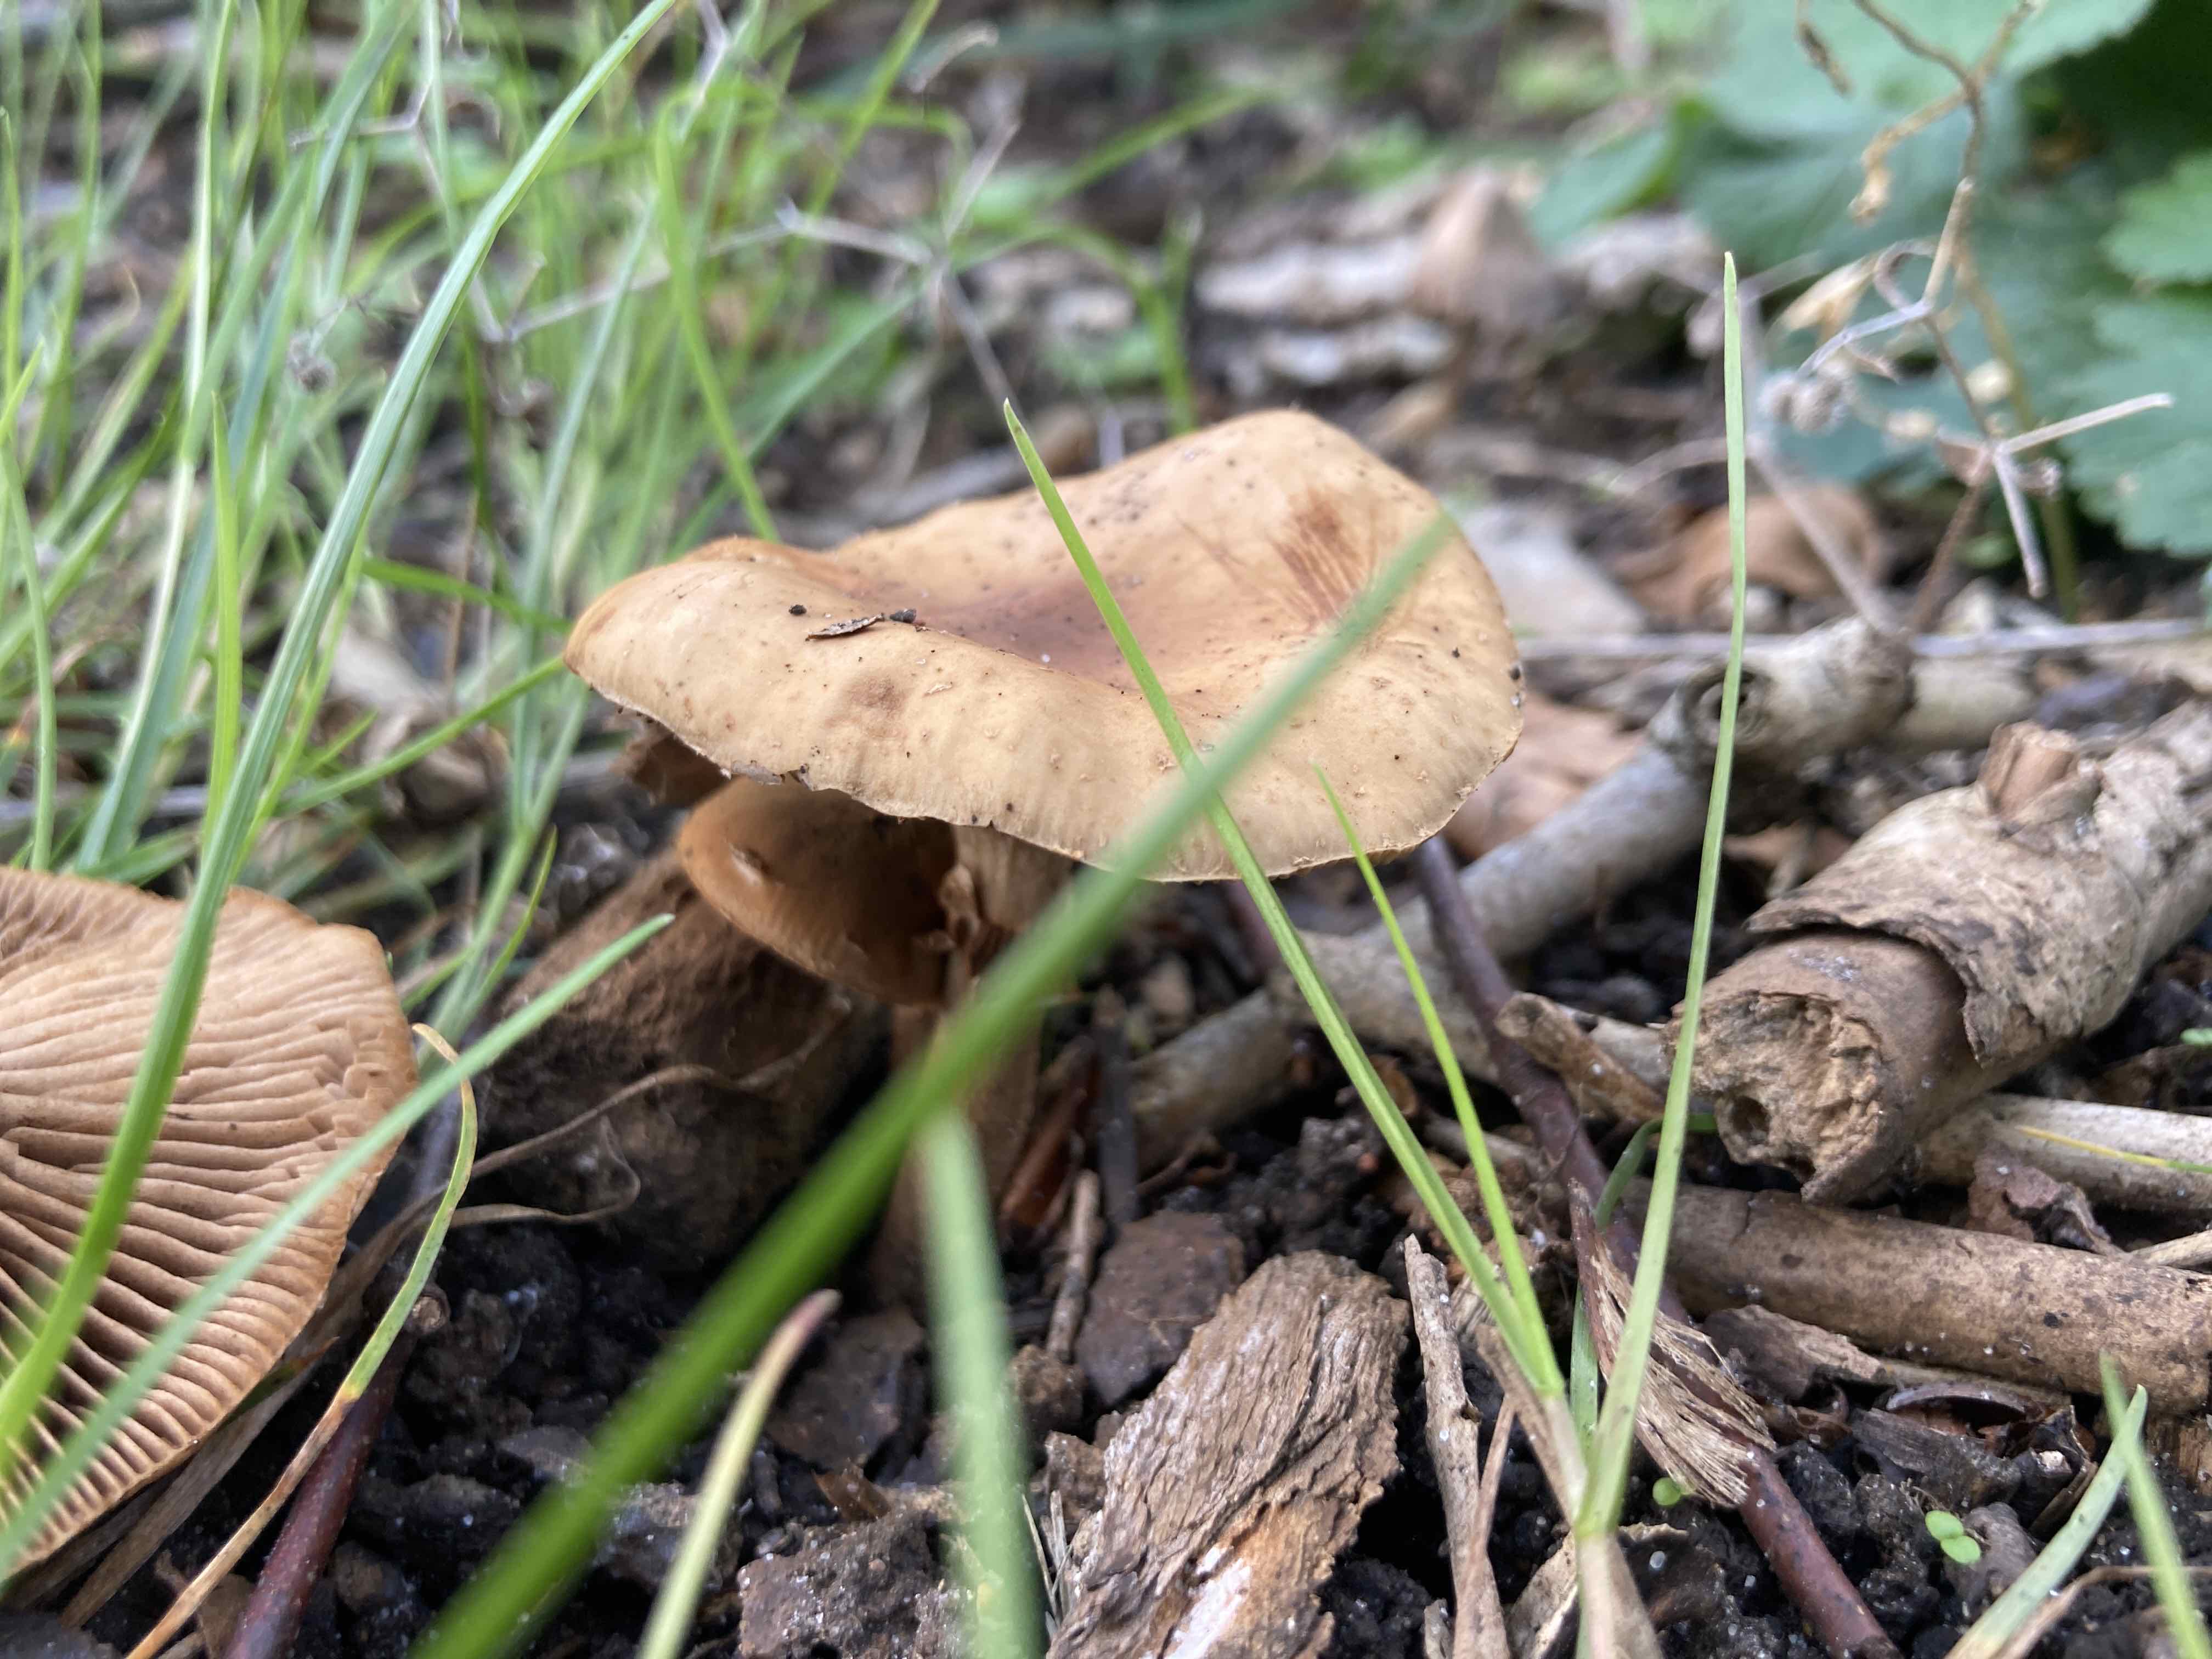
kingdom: Fungi
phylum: Basidiomycota
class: Agaricomycetes
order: Agaricales
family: Tubariaceae
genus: Cyclocybe
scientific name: Cyclocybe erebia
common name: mørk agerhat
